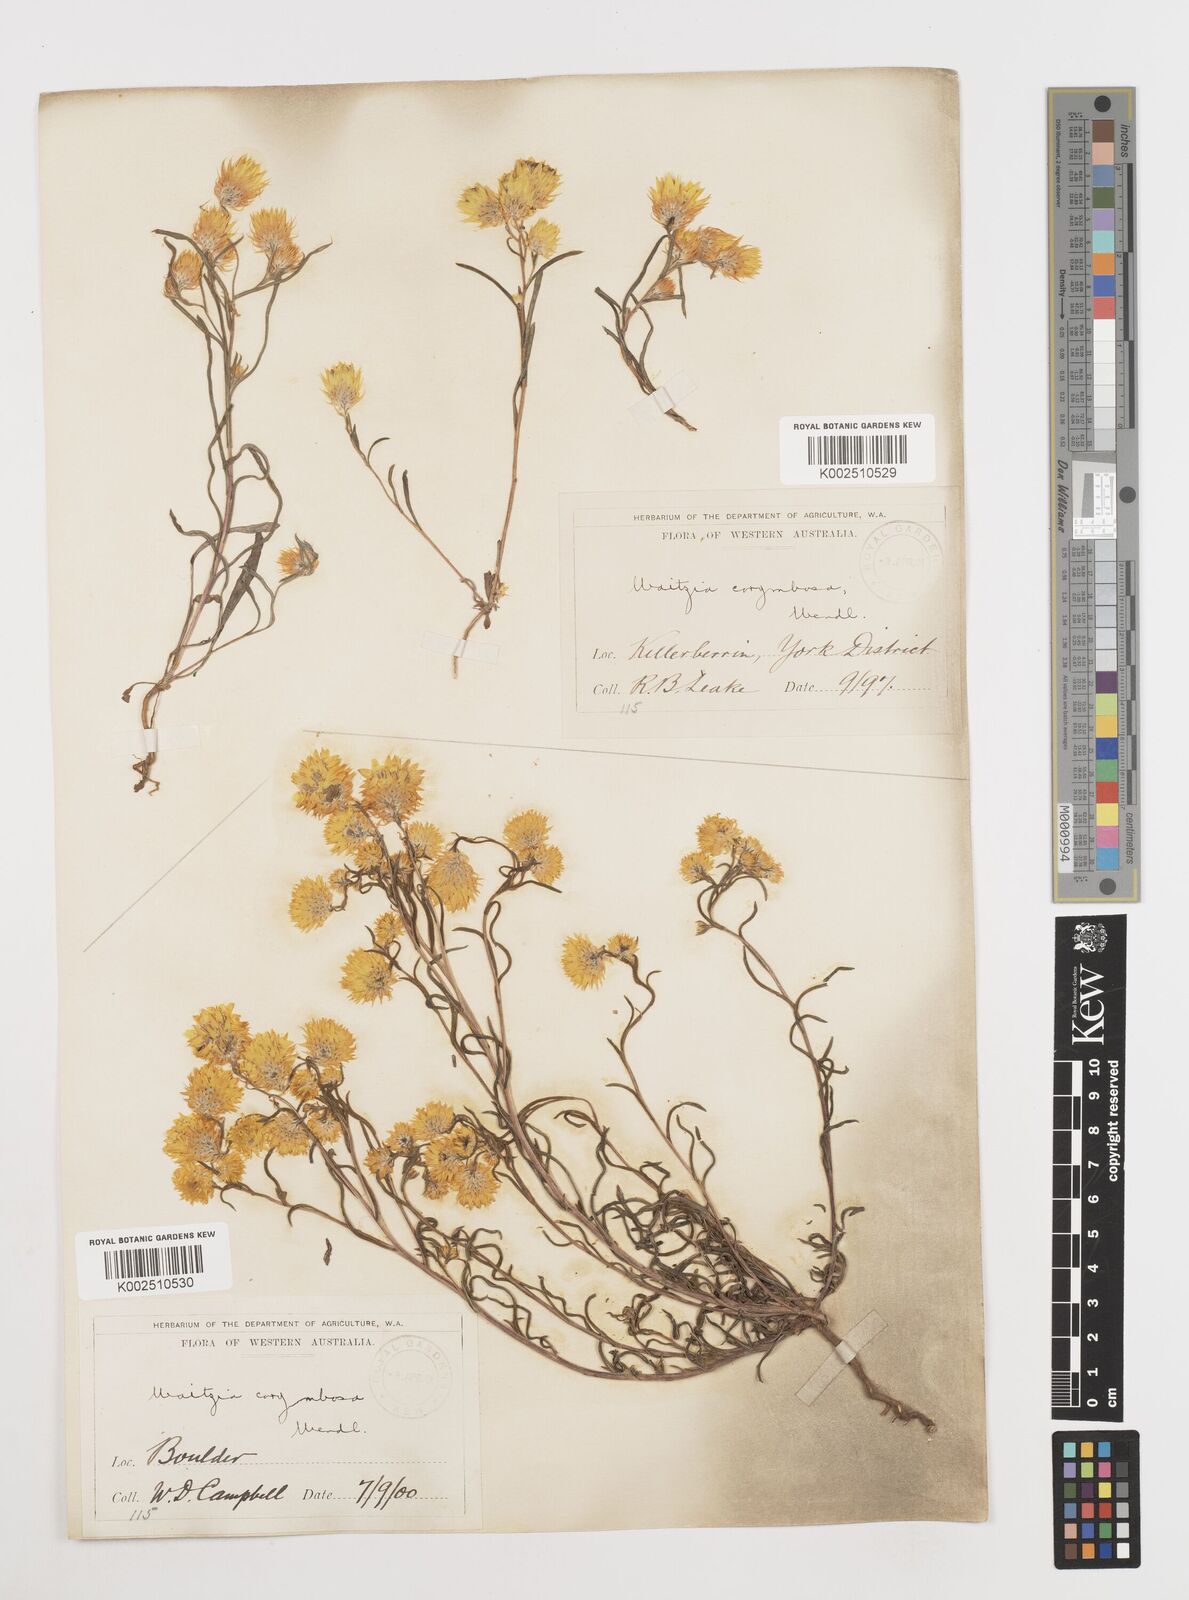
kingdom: Plantae
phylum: Tracheophyta
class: Magnoliopsida
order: Asterales
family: Asteraceae
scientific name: Asteraceae
